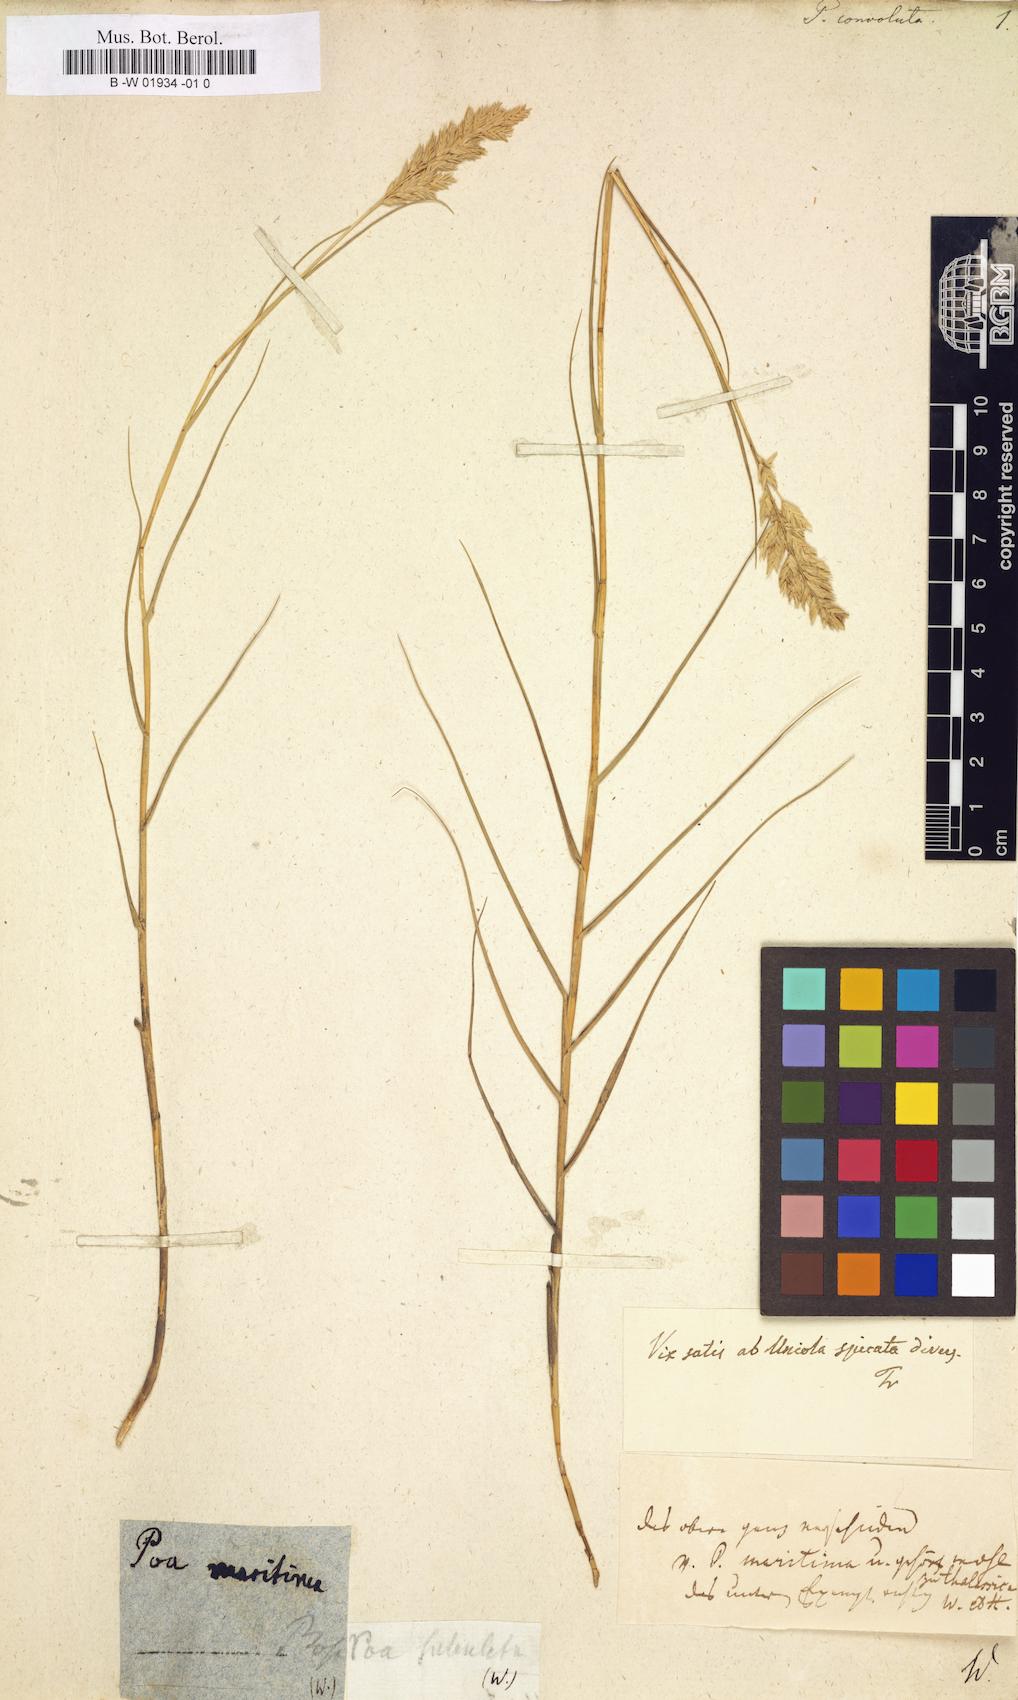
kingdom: Plantae
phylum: Tracheophyta
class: Liliopsida
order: Poales
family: Poaceae
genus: Poa
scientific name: Poa convoluta
